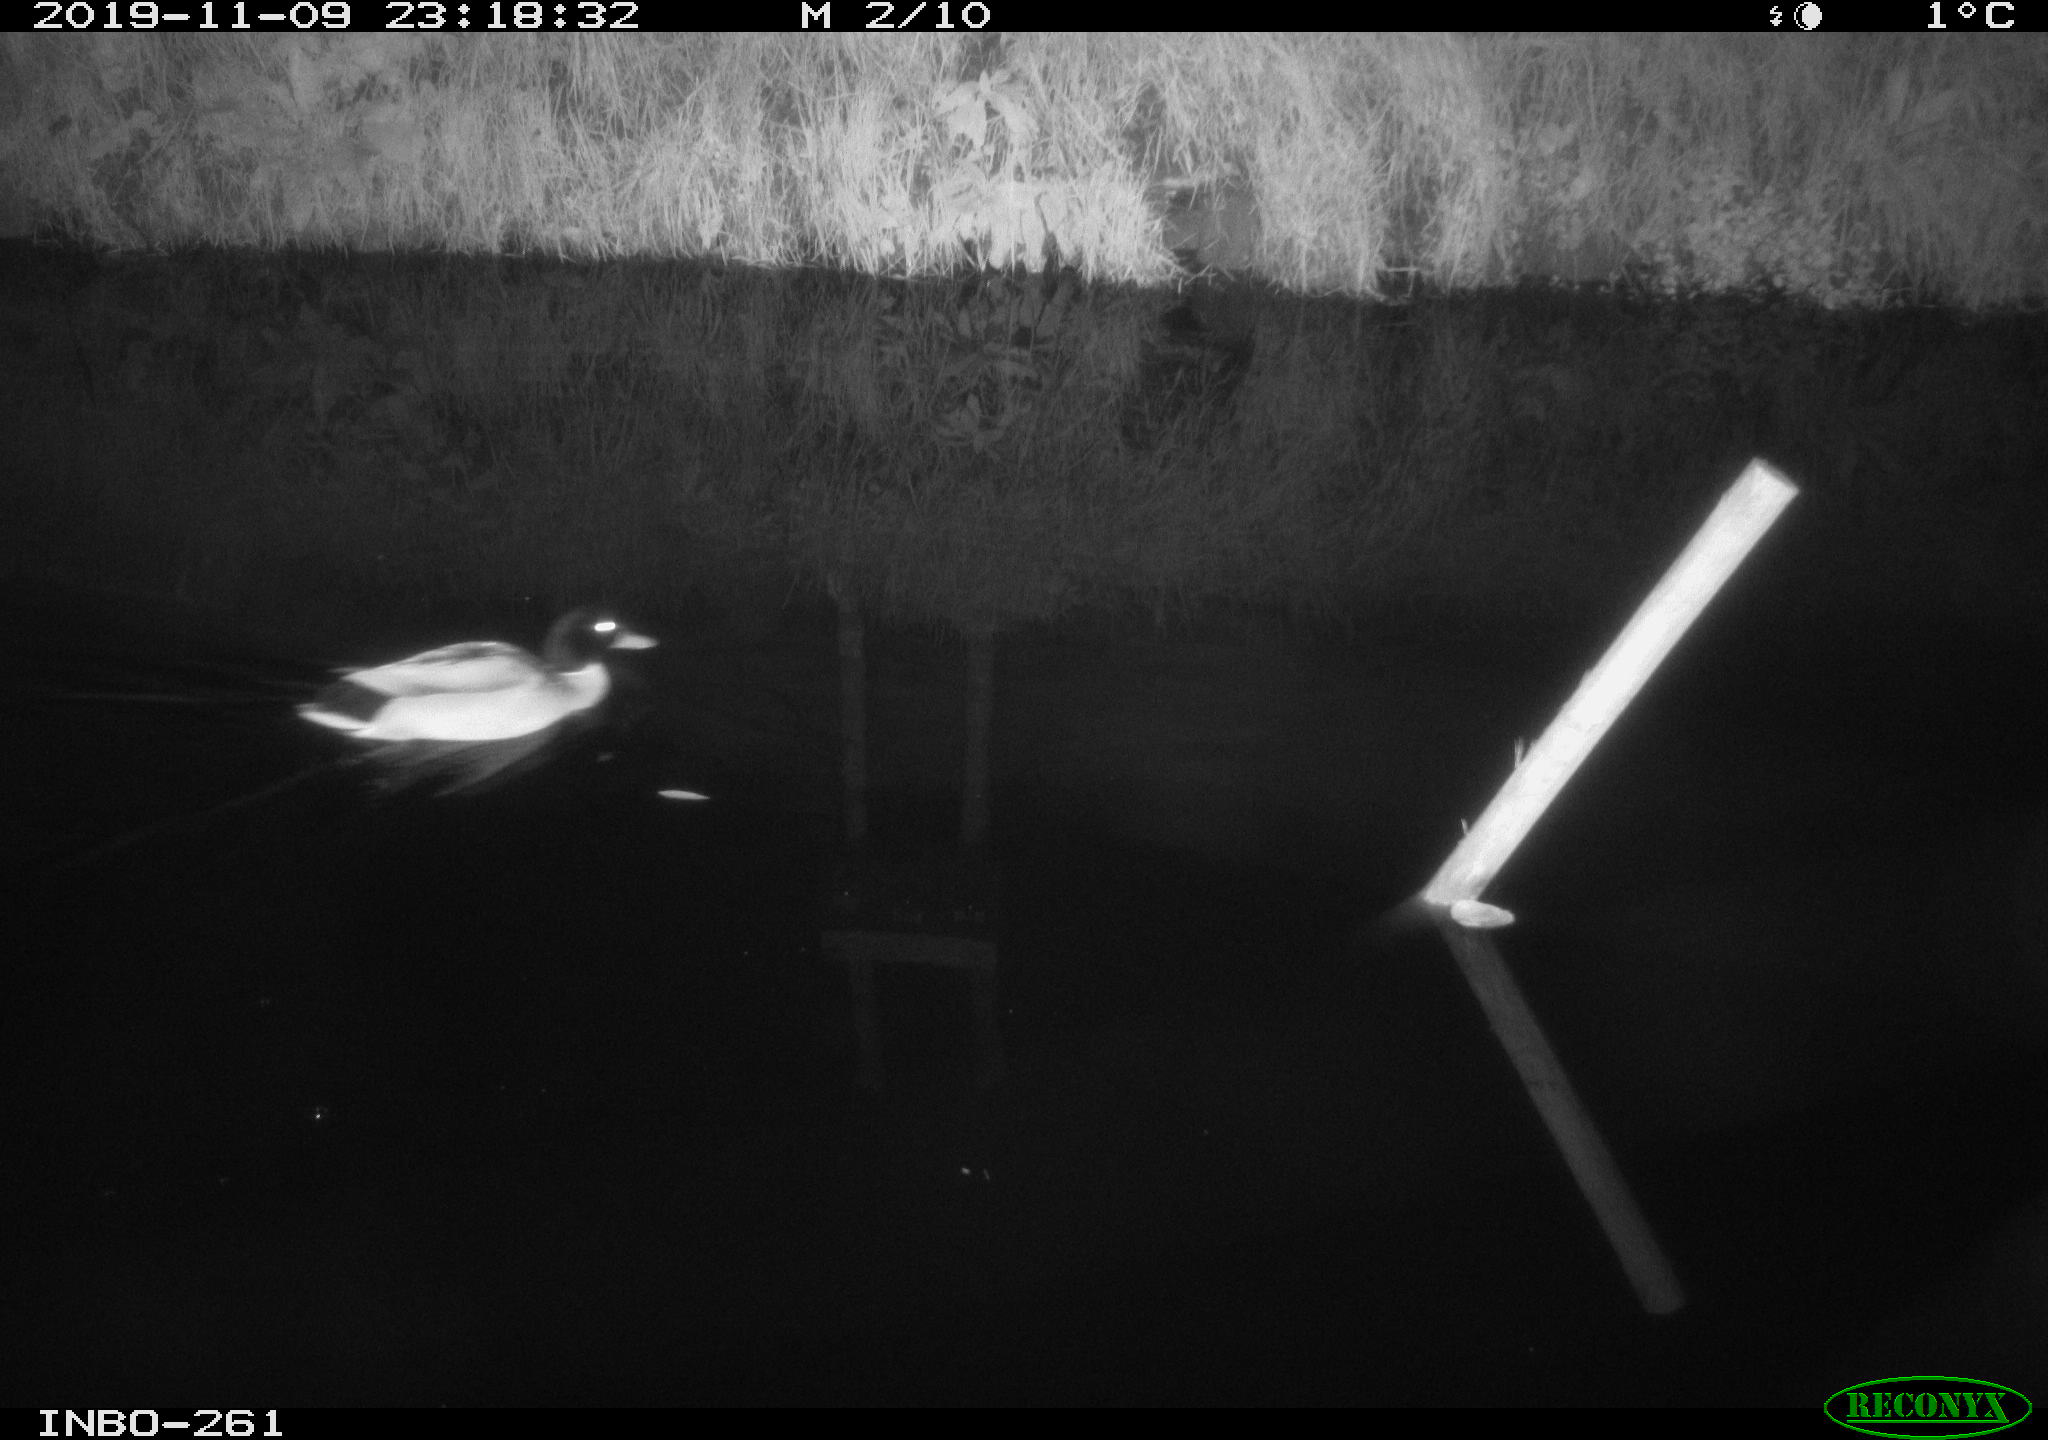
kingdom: Animalia
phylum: Chordata
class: Aves
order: Anseriformes
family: Anatidae
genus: Anas
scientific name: Anas platyrhynchos
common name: Mallard
